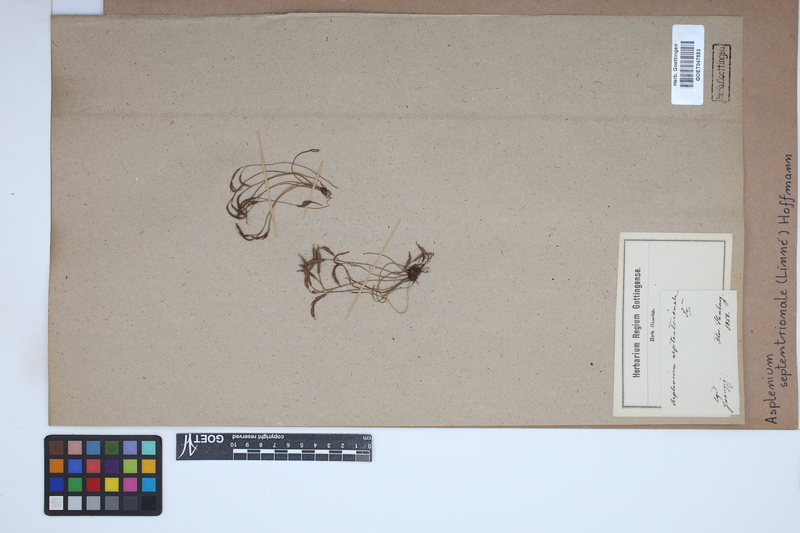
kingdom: Plantae
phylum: Tracheophyta
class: Polypodiopsida
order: Polypodiales
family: Aspleniaceae
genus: Asplenium
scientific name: Asplenium septentrionale
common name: Forked spleenwort
